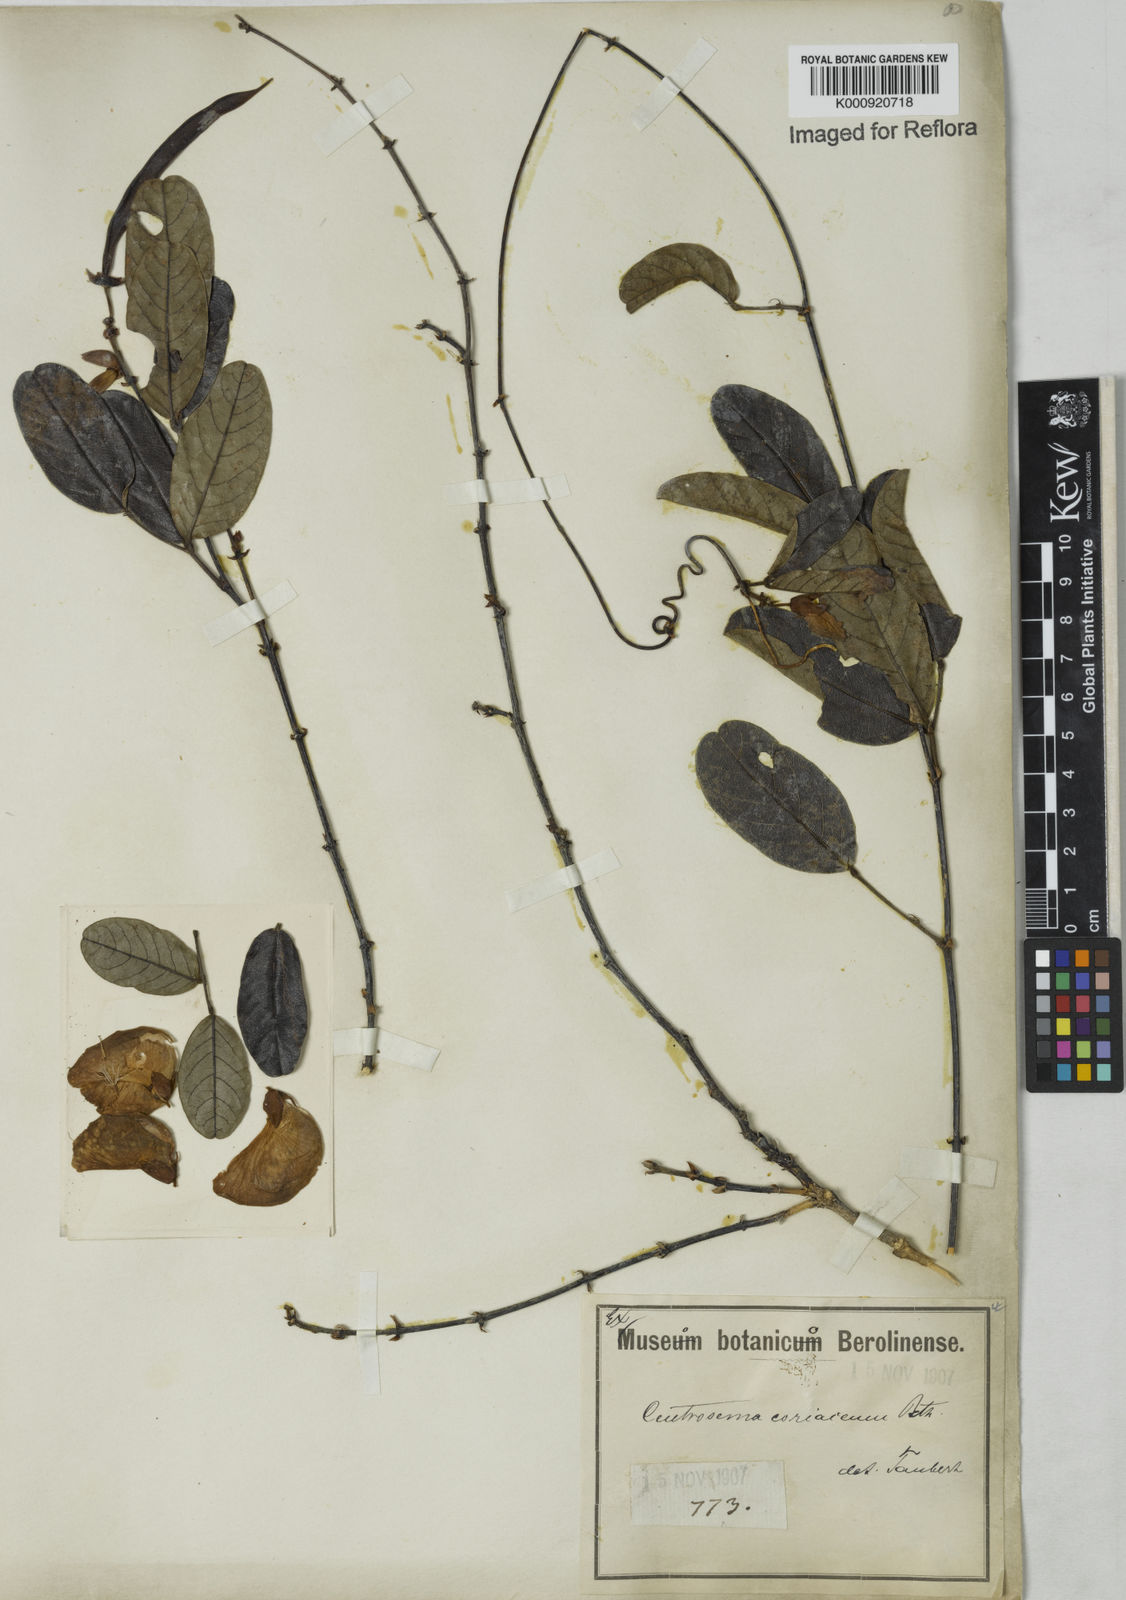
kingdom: Plantae
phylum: Tracheophyta
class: Magnoliopsida
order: Fabales
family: Fabaceae
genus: Centrosema
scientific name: Centrosema coriaceum
